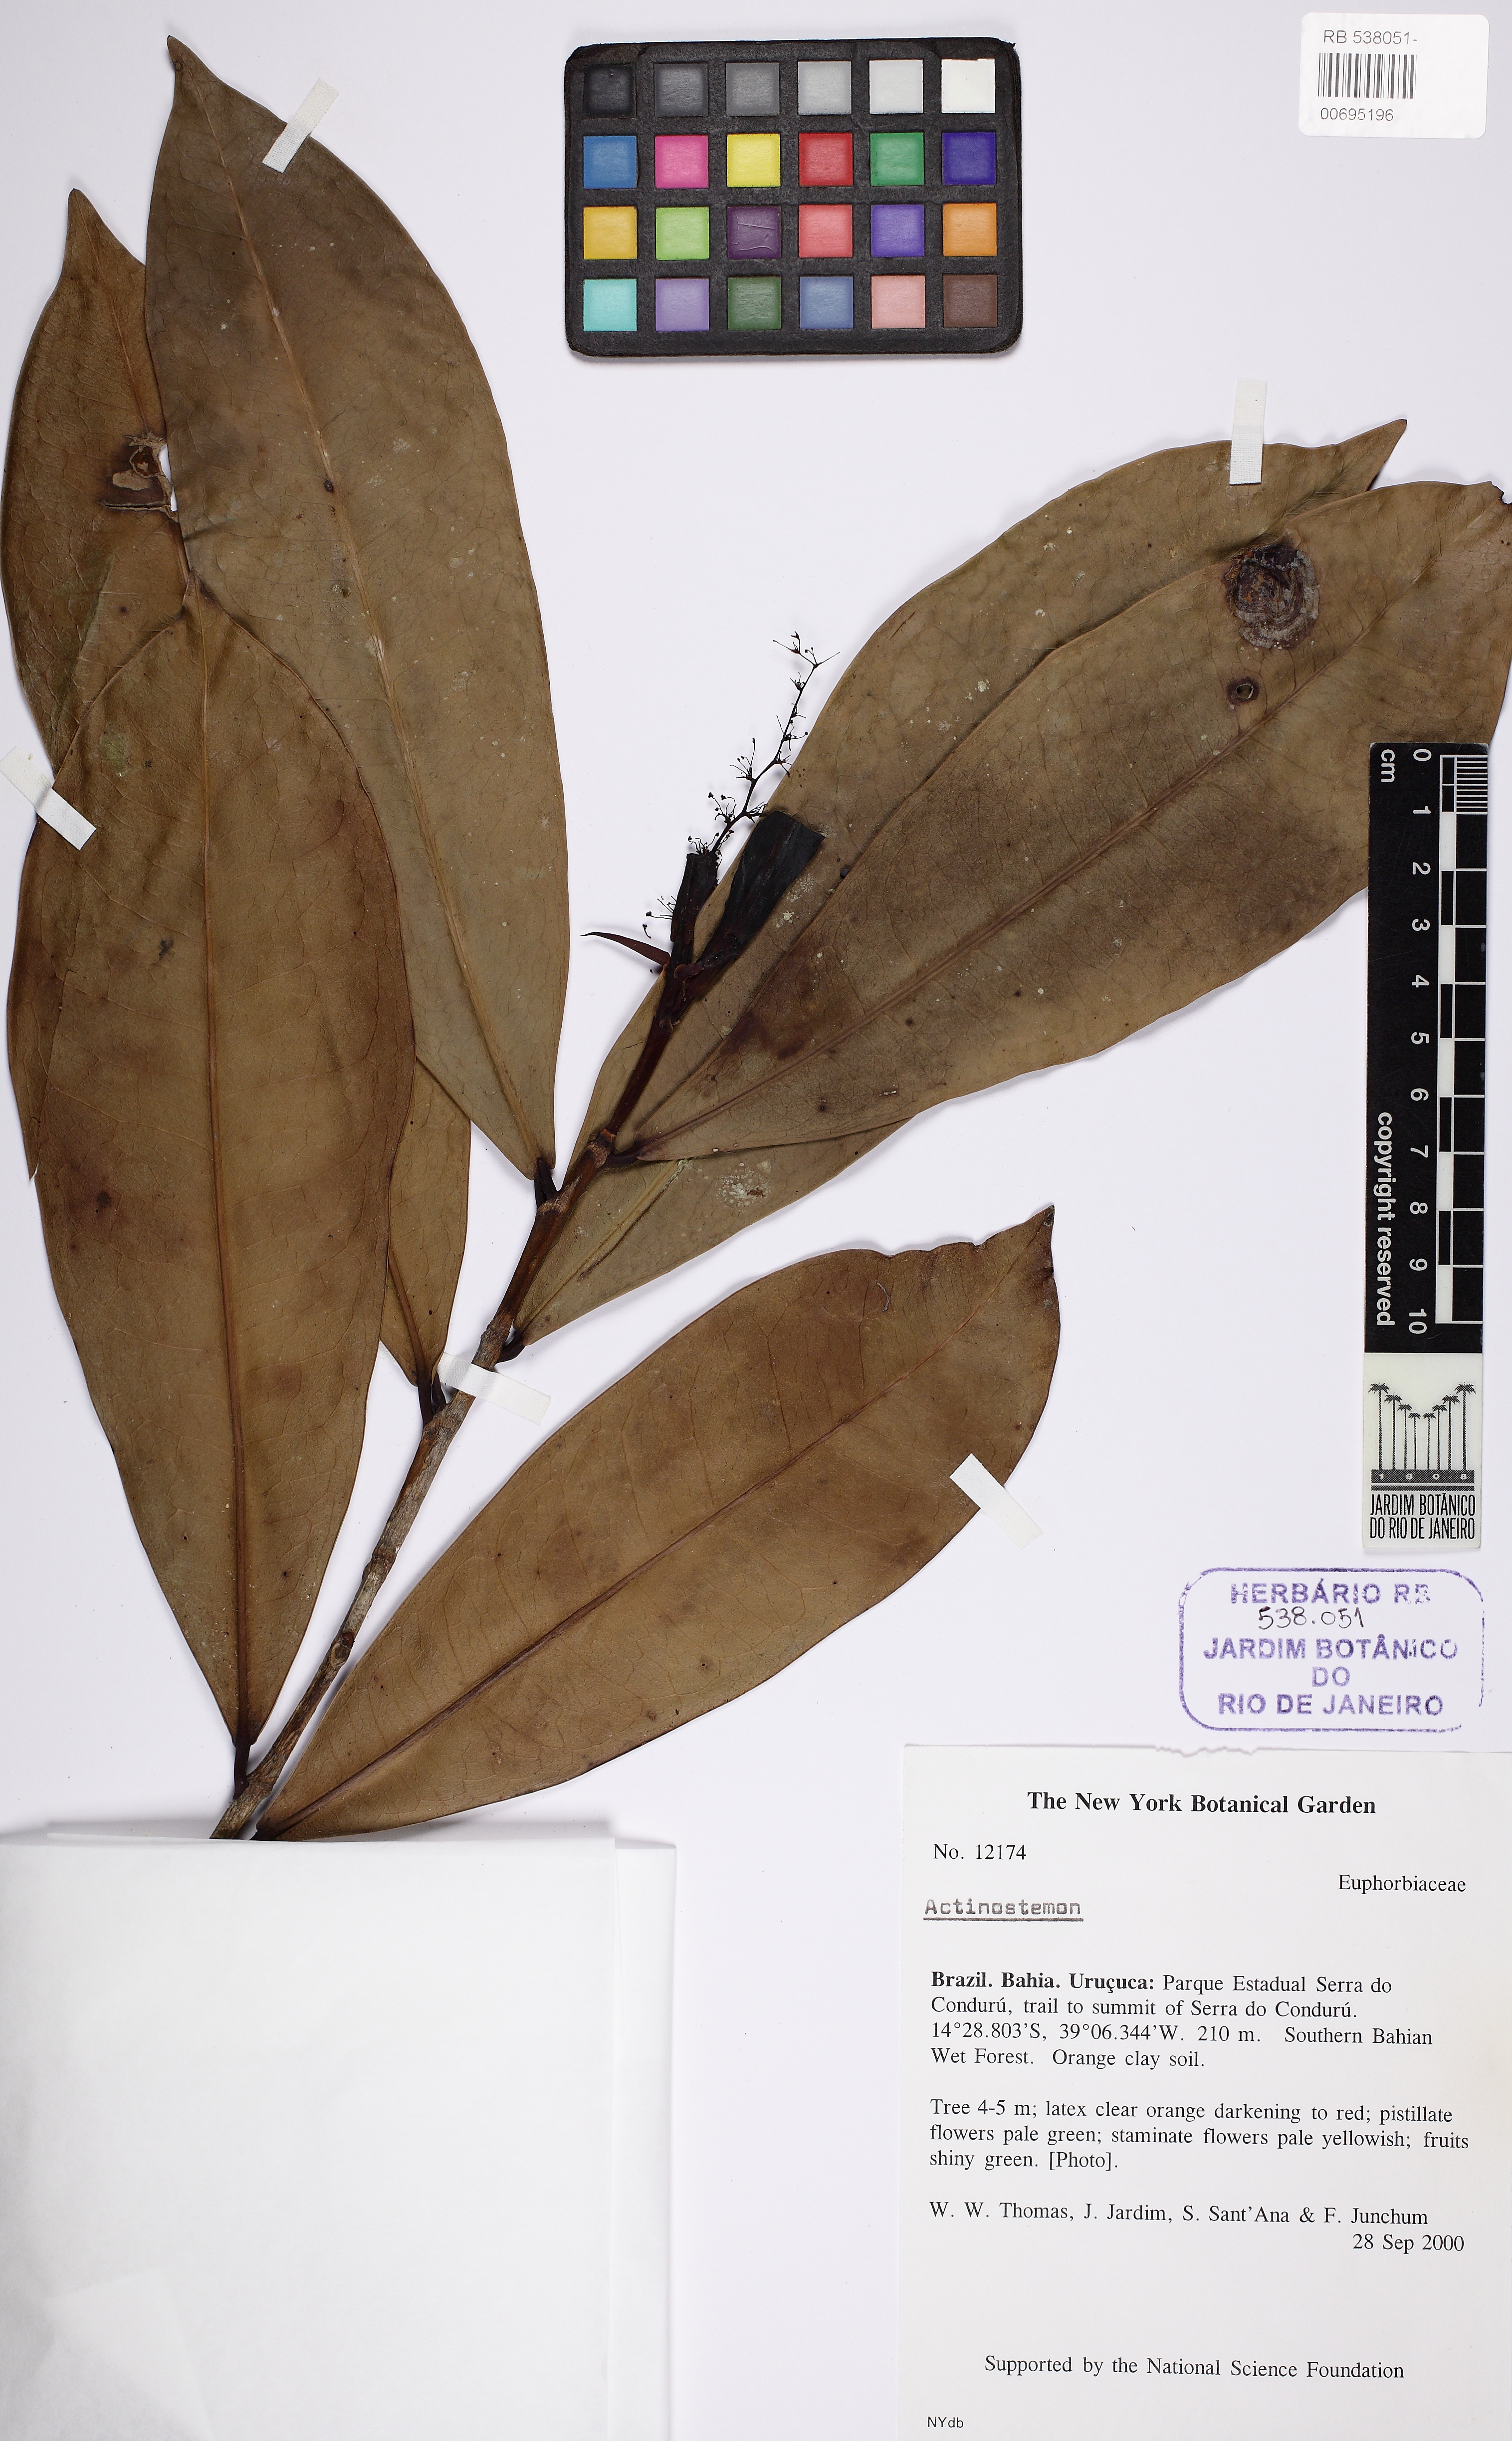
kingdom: Plantae
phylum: Tracheophyta
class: Magnoliopsida
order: Malpighiales
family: Euphorbiaceae
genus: Actinostemon
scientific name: Actinostemon
